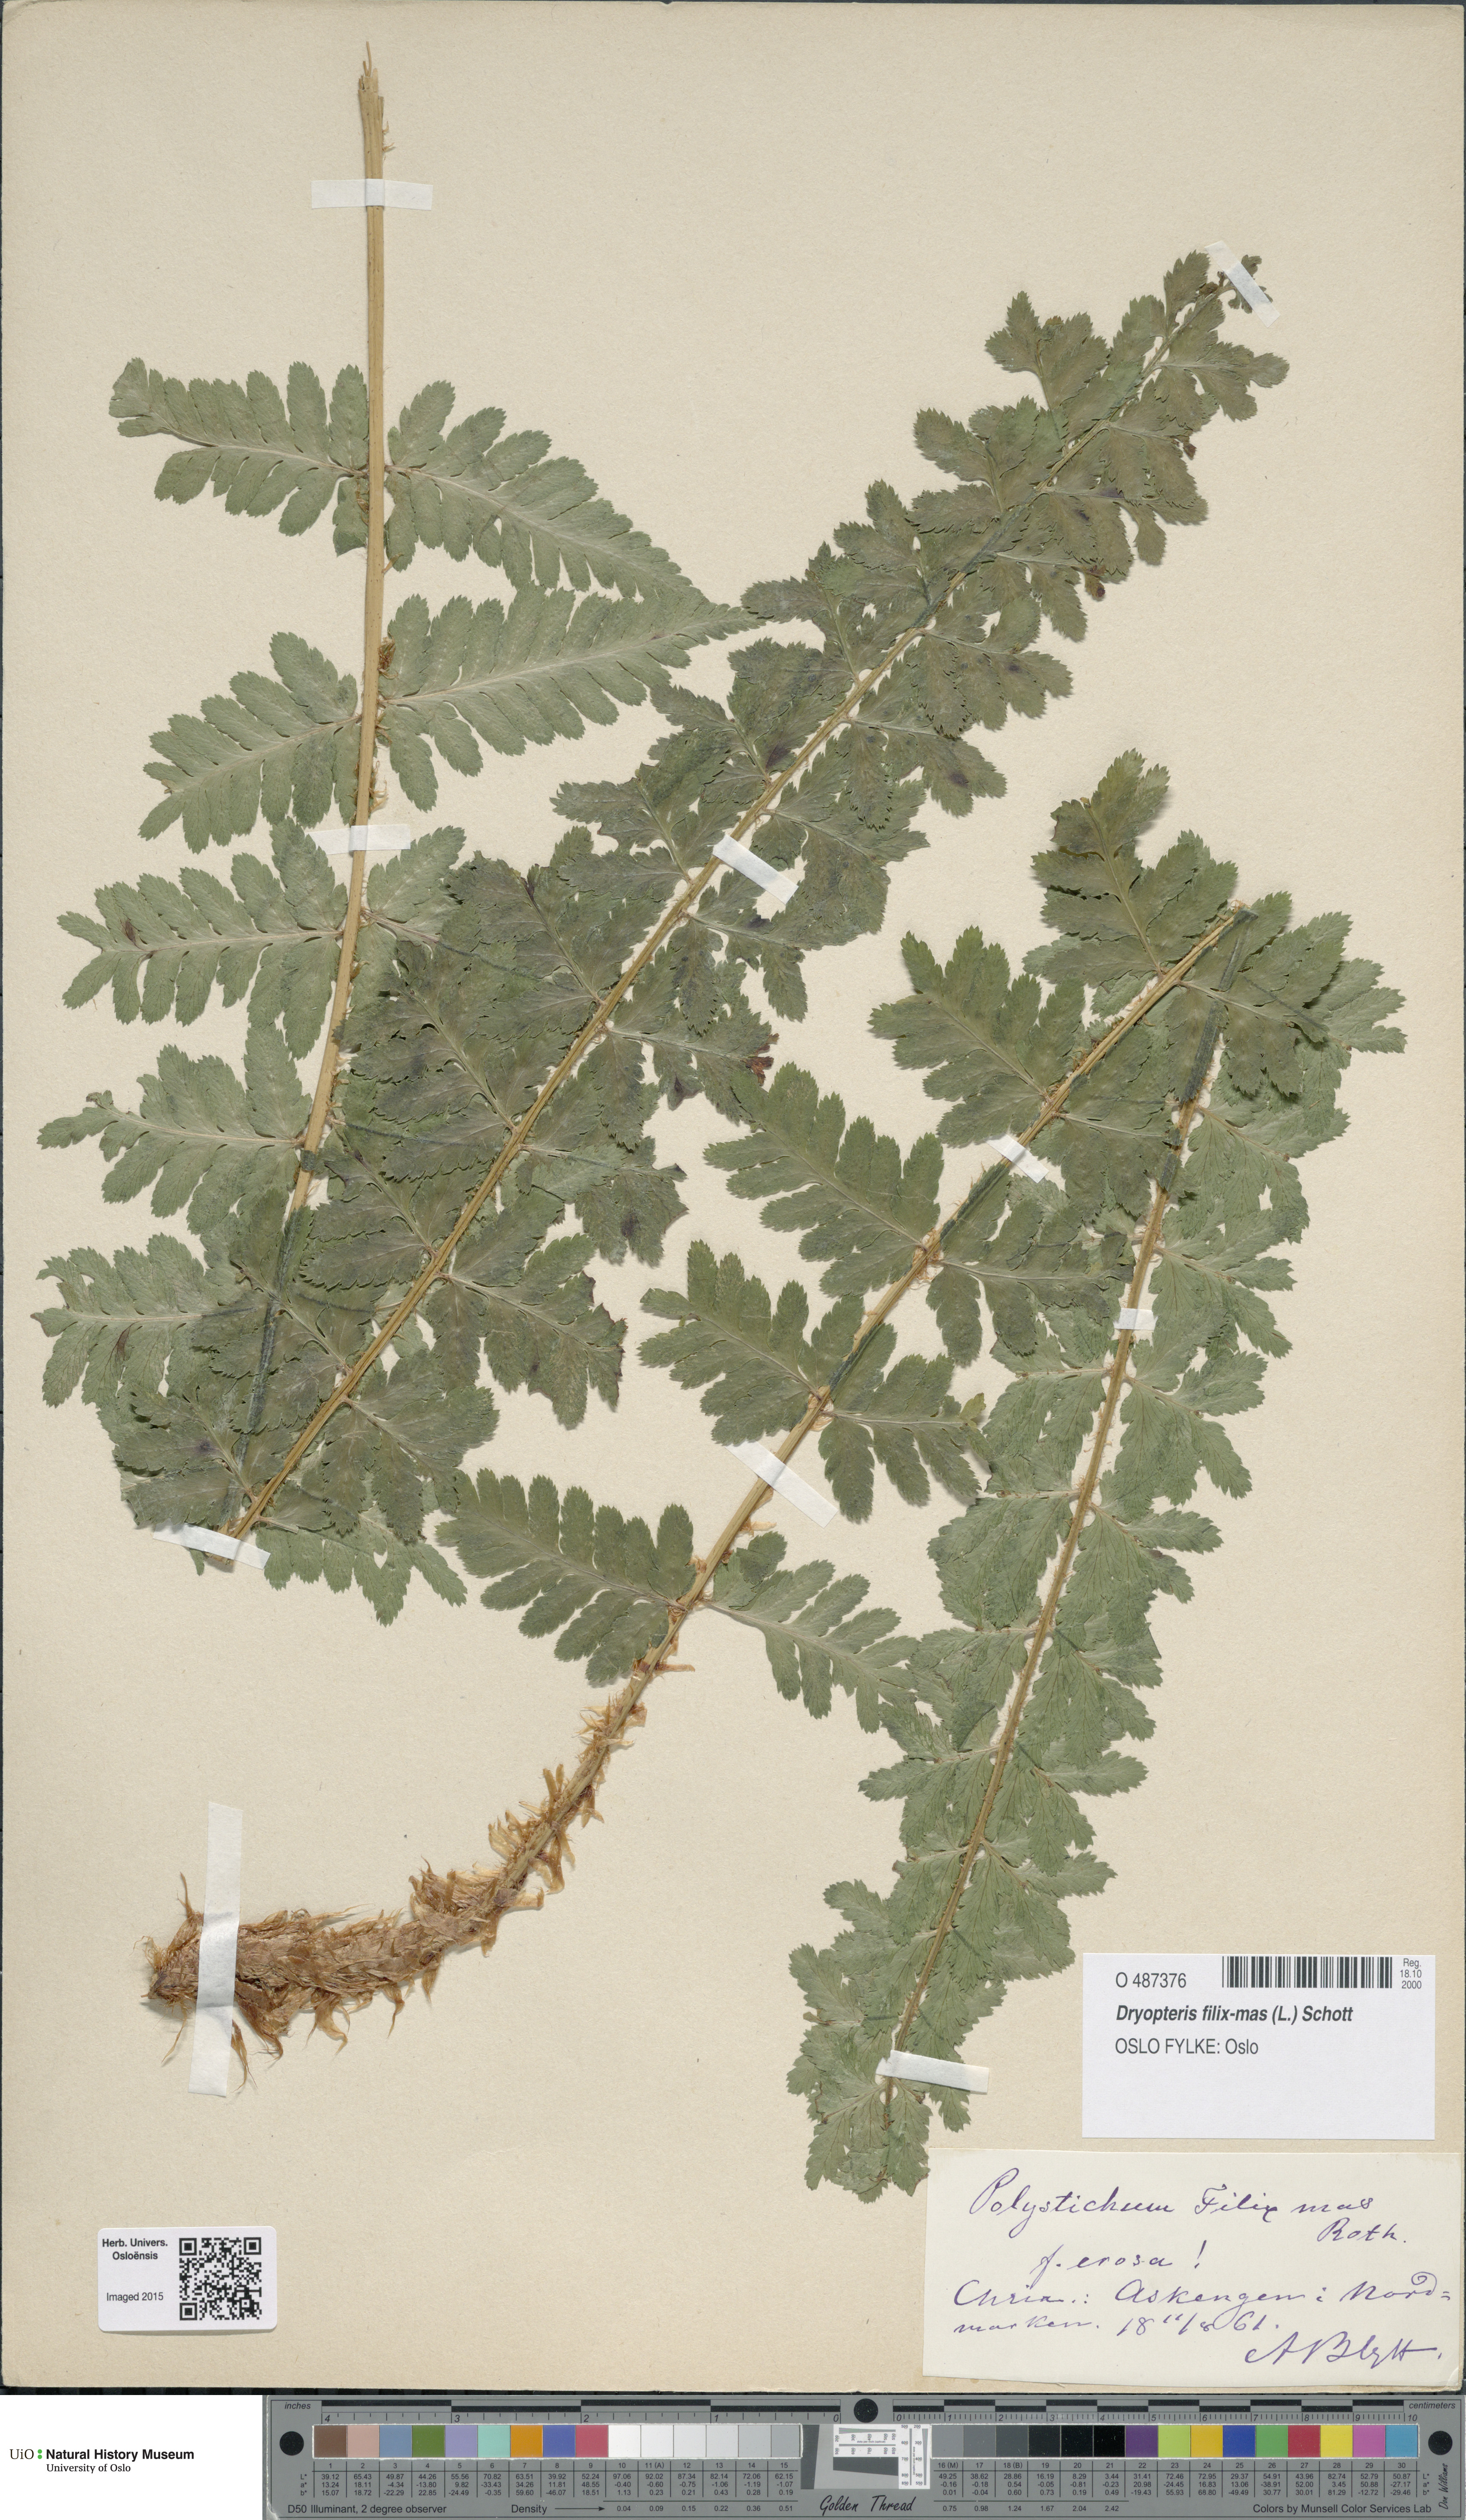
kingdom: Plantae
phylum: Tracheophyta
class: Polypodiopsida
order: Polypodiales
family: Dryopteridaceae
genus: Dryopteris
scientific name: Dryopteris filix-mas
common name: Male fern
